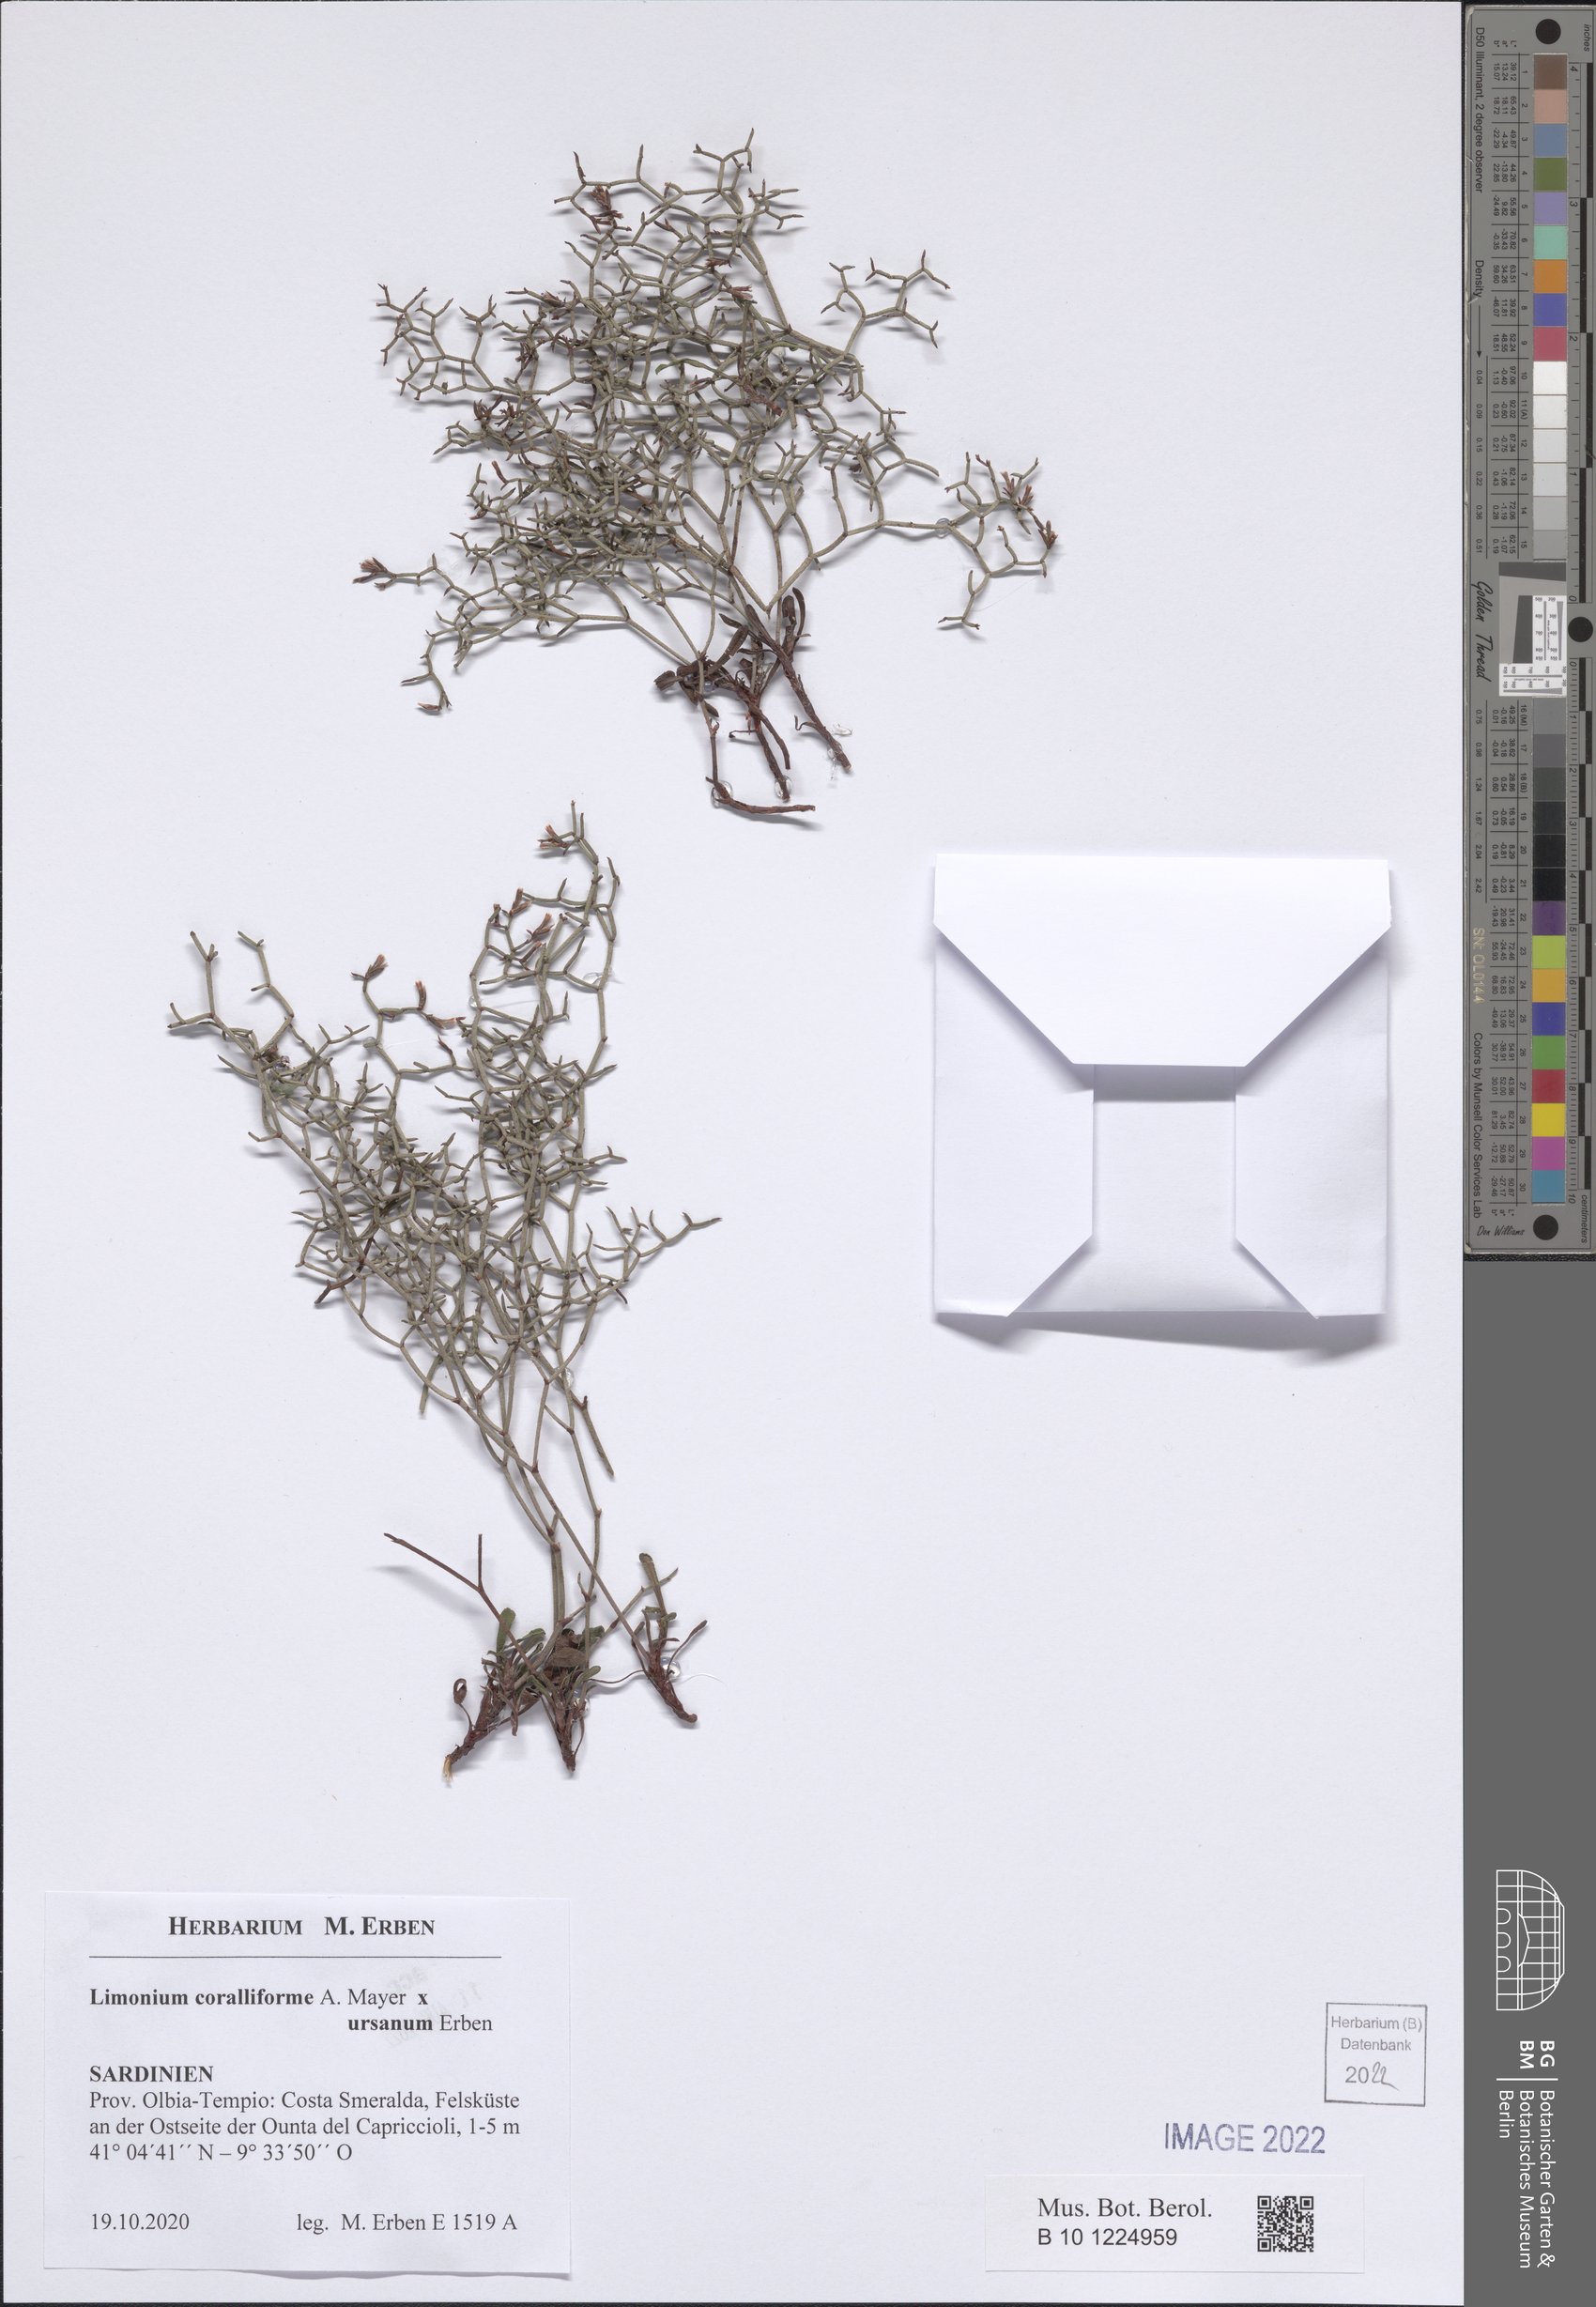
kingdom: Plantae
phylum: Tracheophyta
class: Magnoliopsida
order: Caryophyllales
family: Plumbaginaceae
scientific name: Plumbaginaceae
